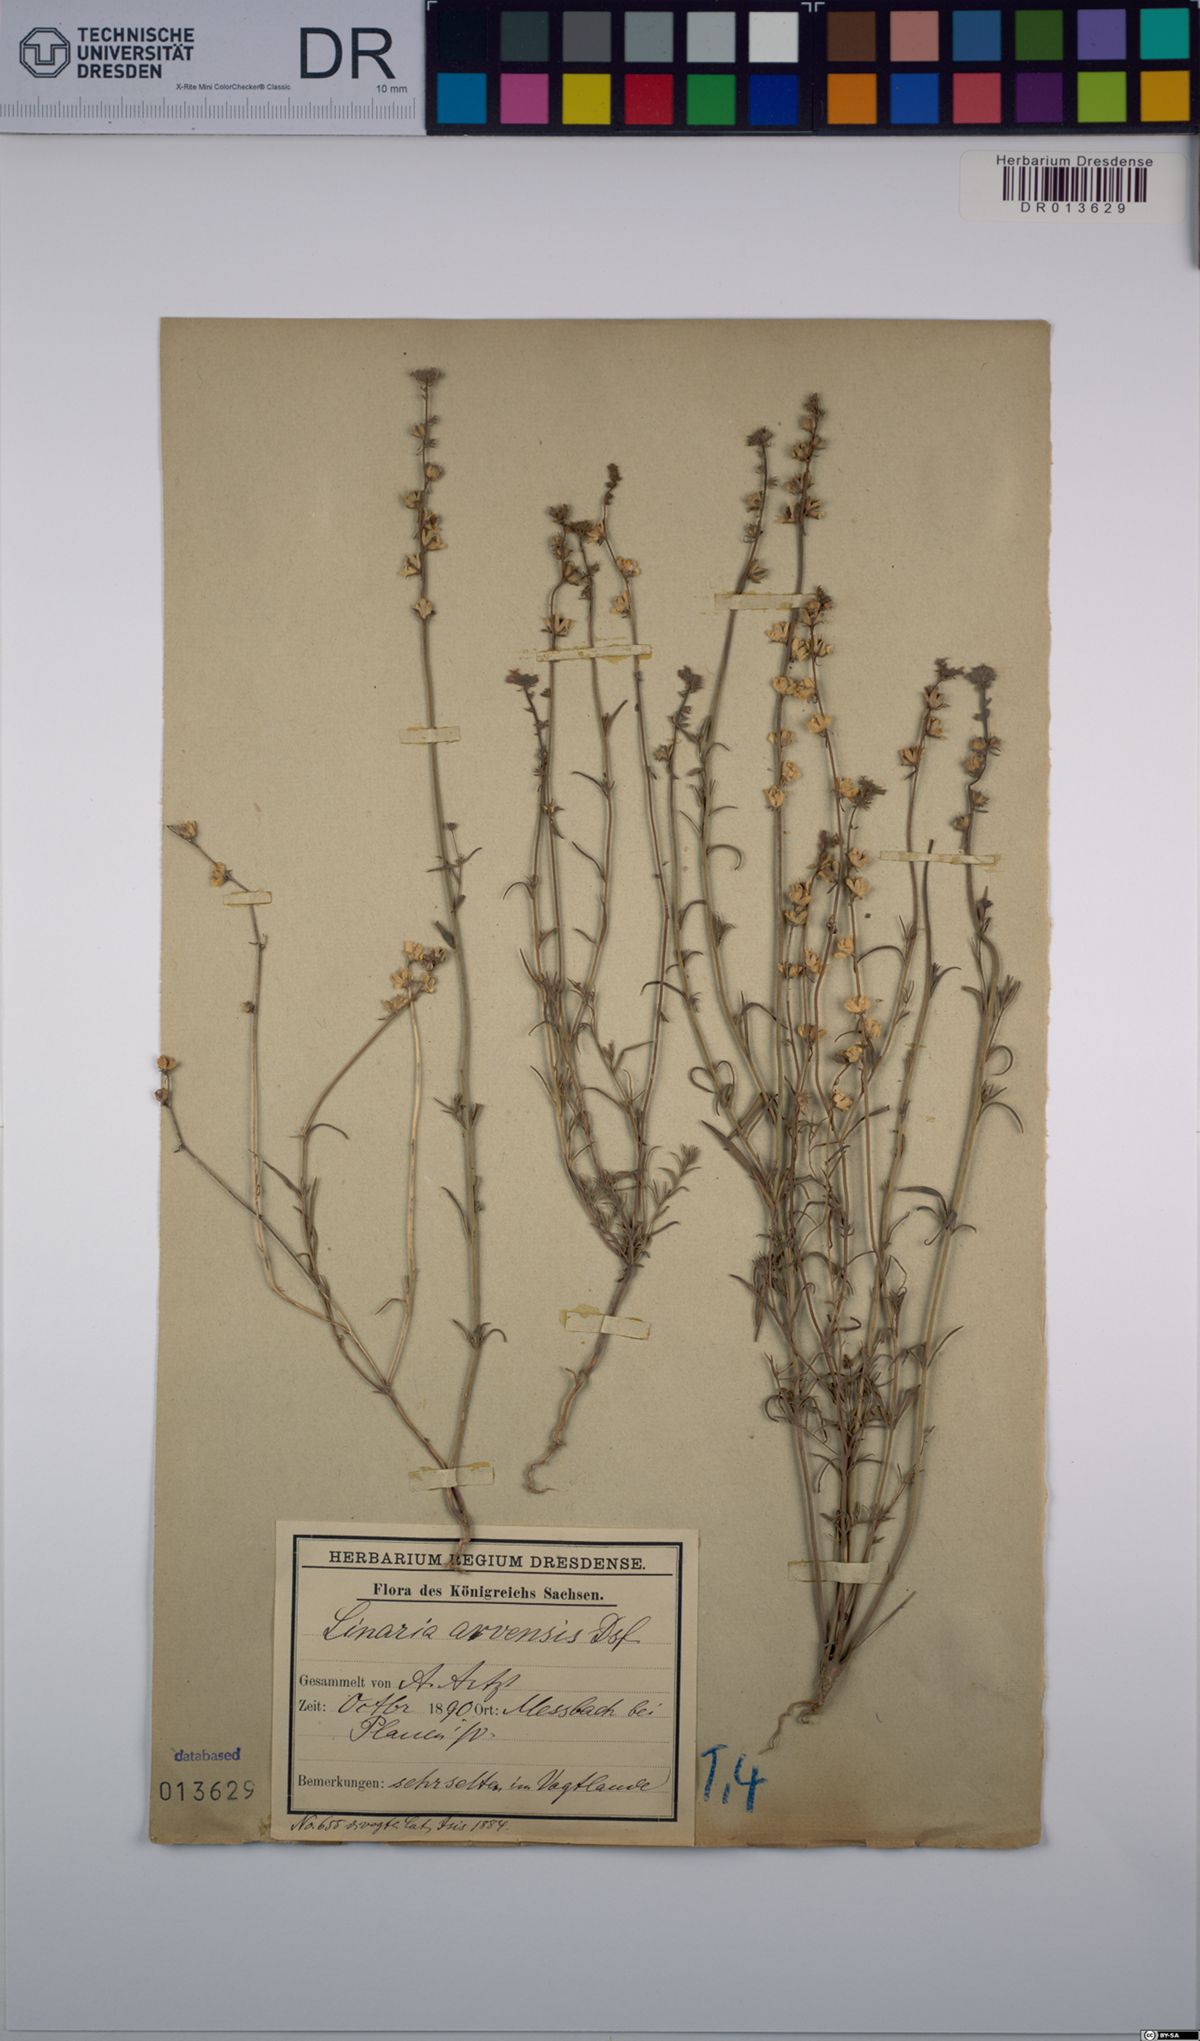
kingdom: Plantae
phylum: Tracheophyta
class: Magnoliopsida
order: Lamiales
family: Plantaginaceae
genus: Linaria
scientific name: Linaria arvensis
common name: Corn toadflax
